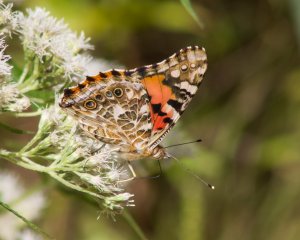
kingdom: Animalia
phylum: Arthropoda
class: Insecta
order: Lepidoptera
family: Nymphalidae
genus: Vanessa
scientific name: Vanessa cardui
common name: Painted Lady
